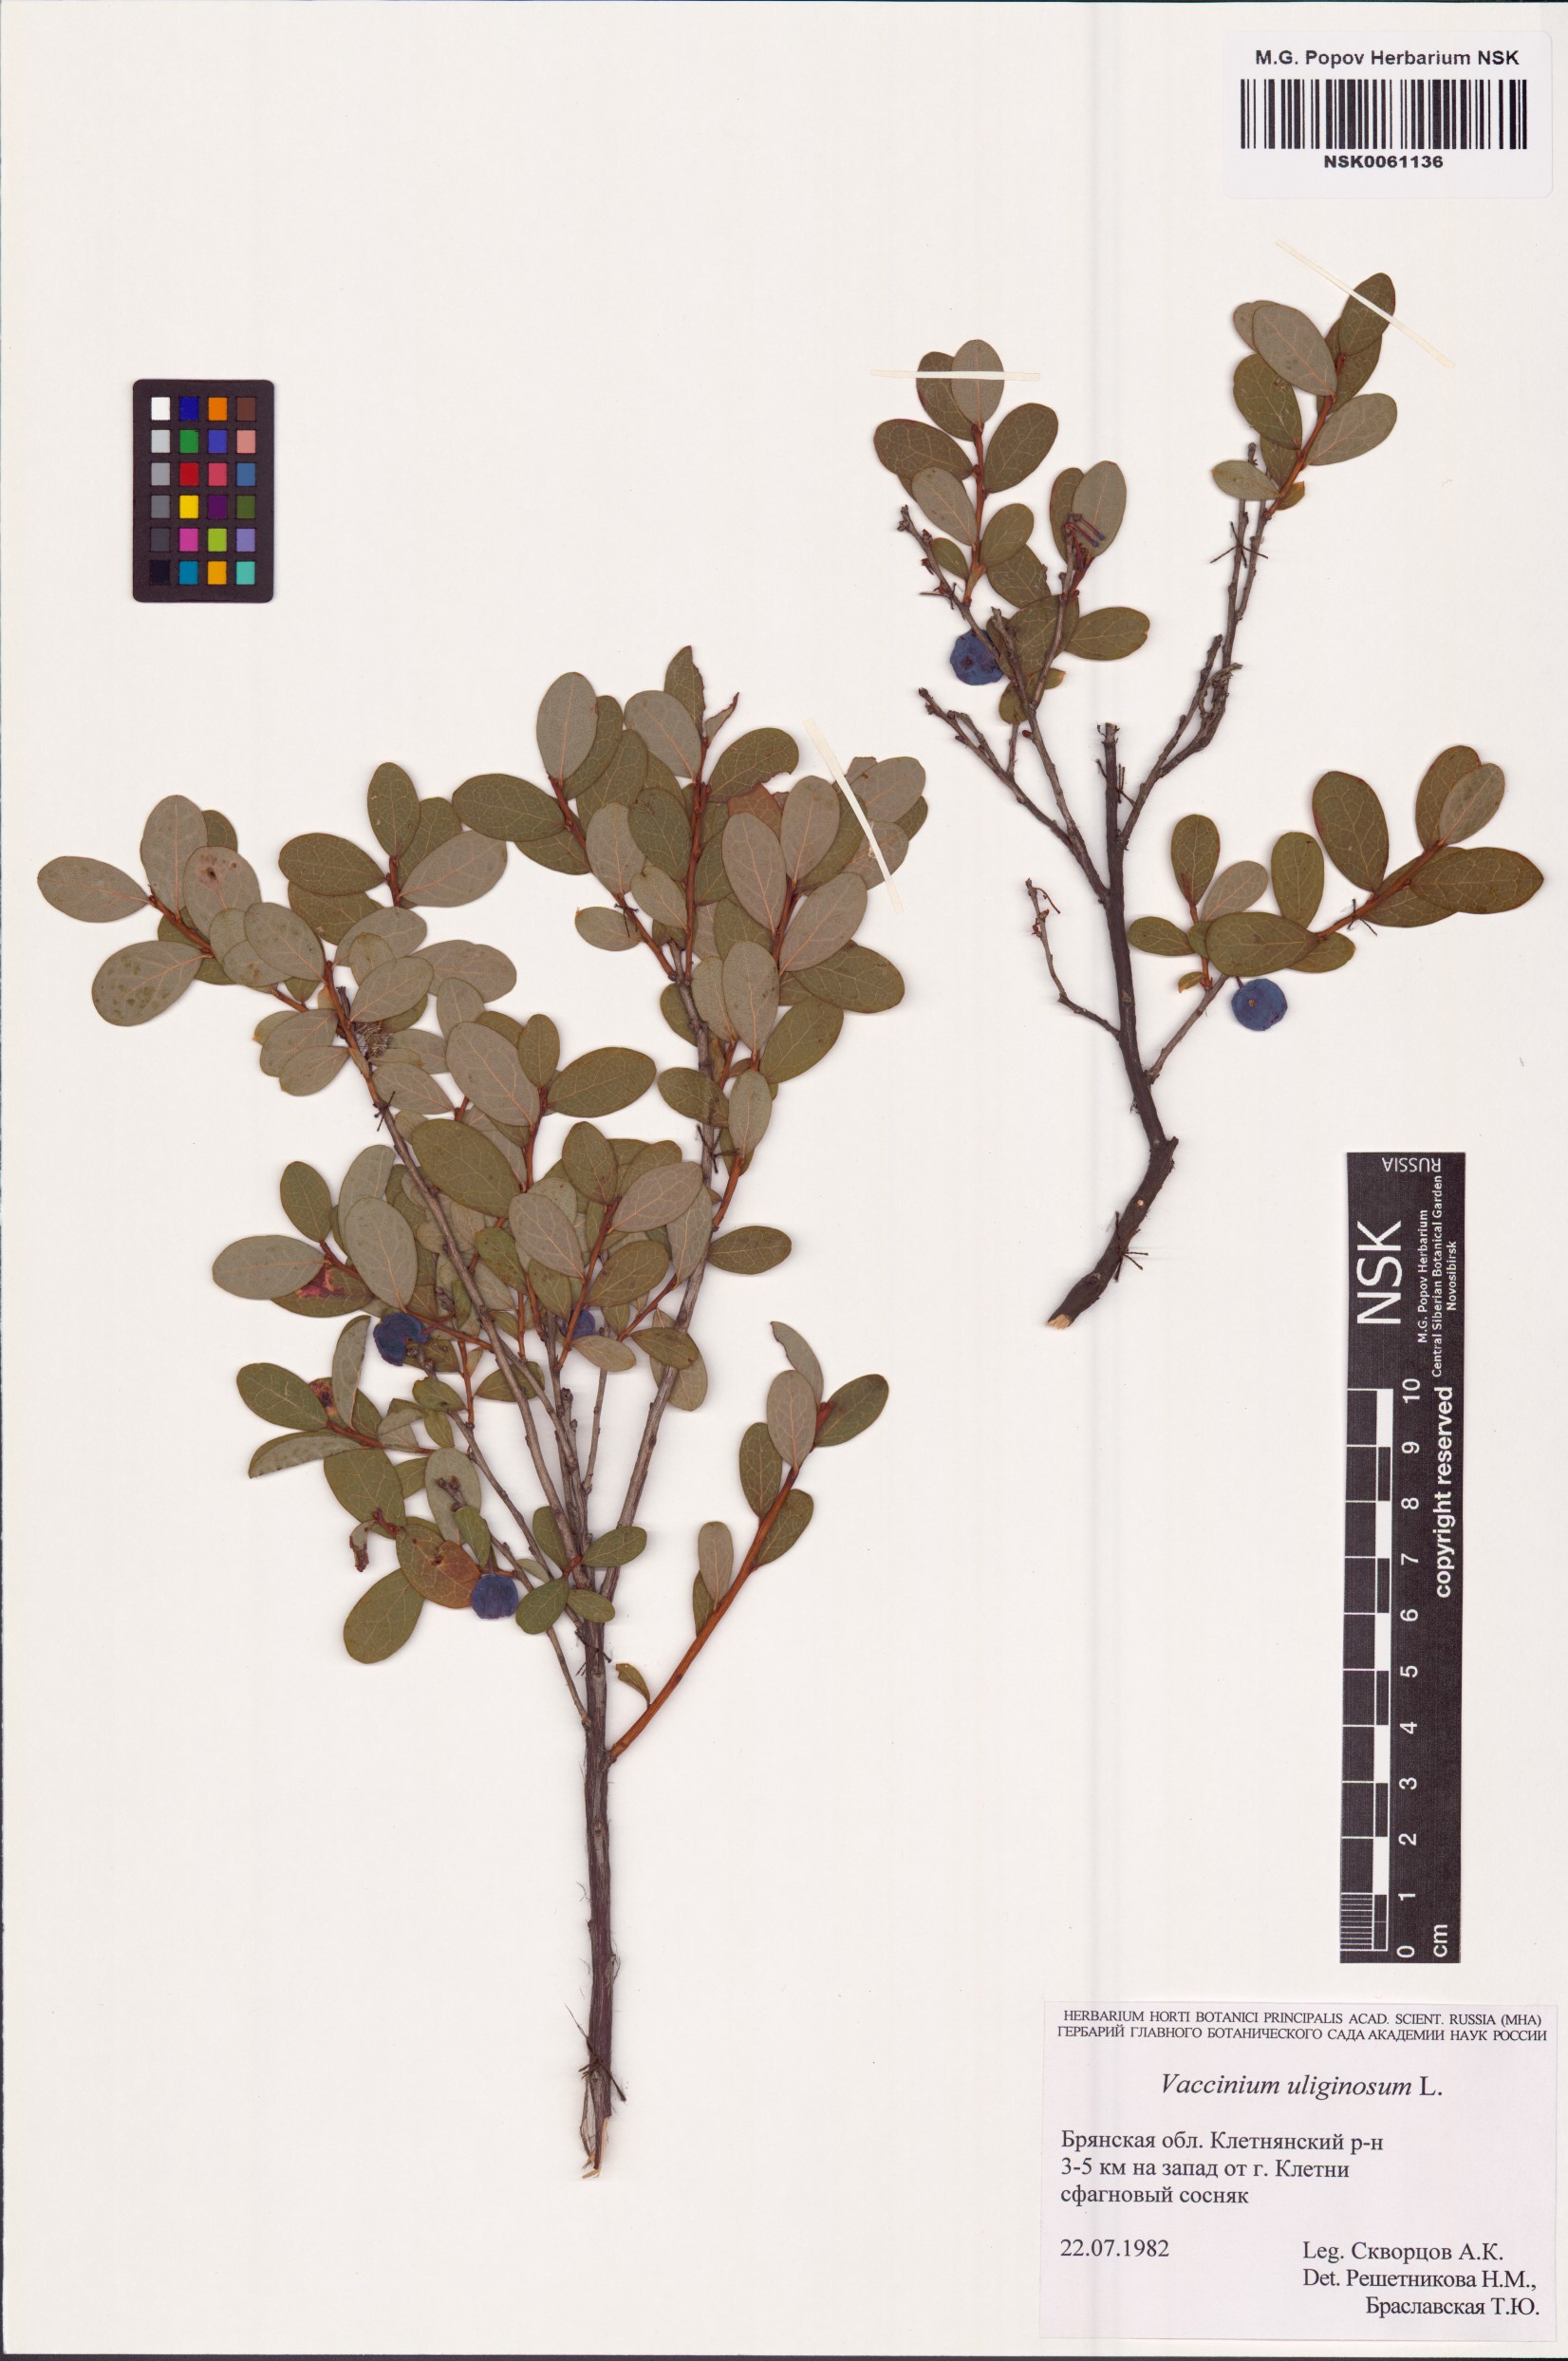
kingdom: Plantae
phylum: Tracheophyta
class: Magnoliopsida
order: Ericales
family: Ericaceae
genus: Vaccinium
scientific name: Vaccinium uliginosum
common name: Bog bilberry
